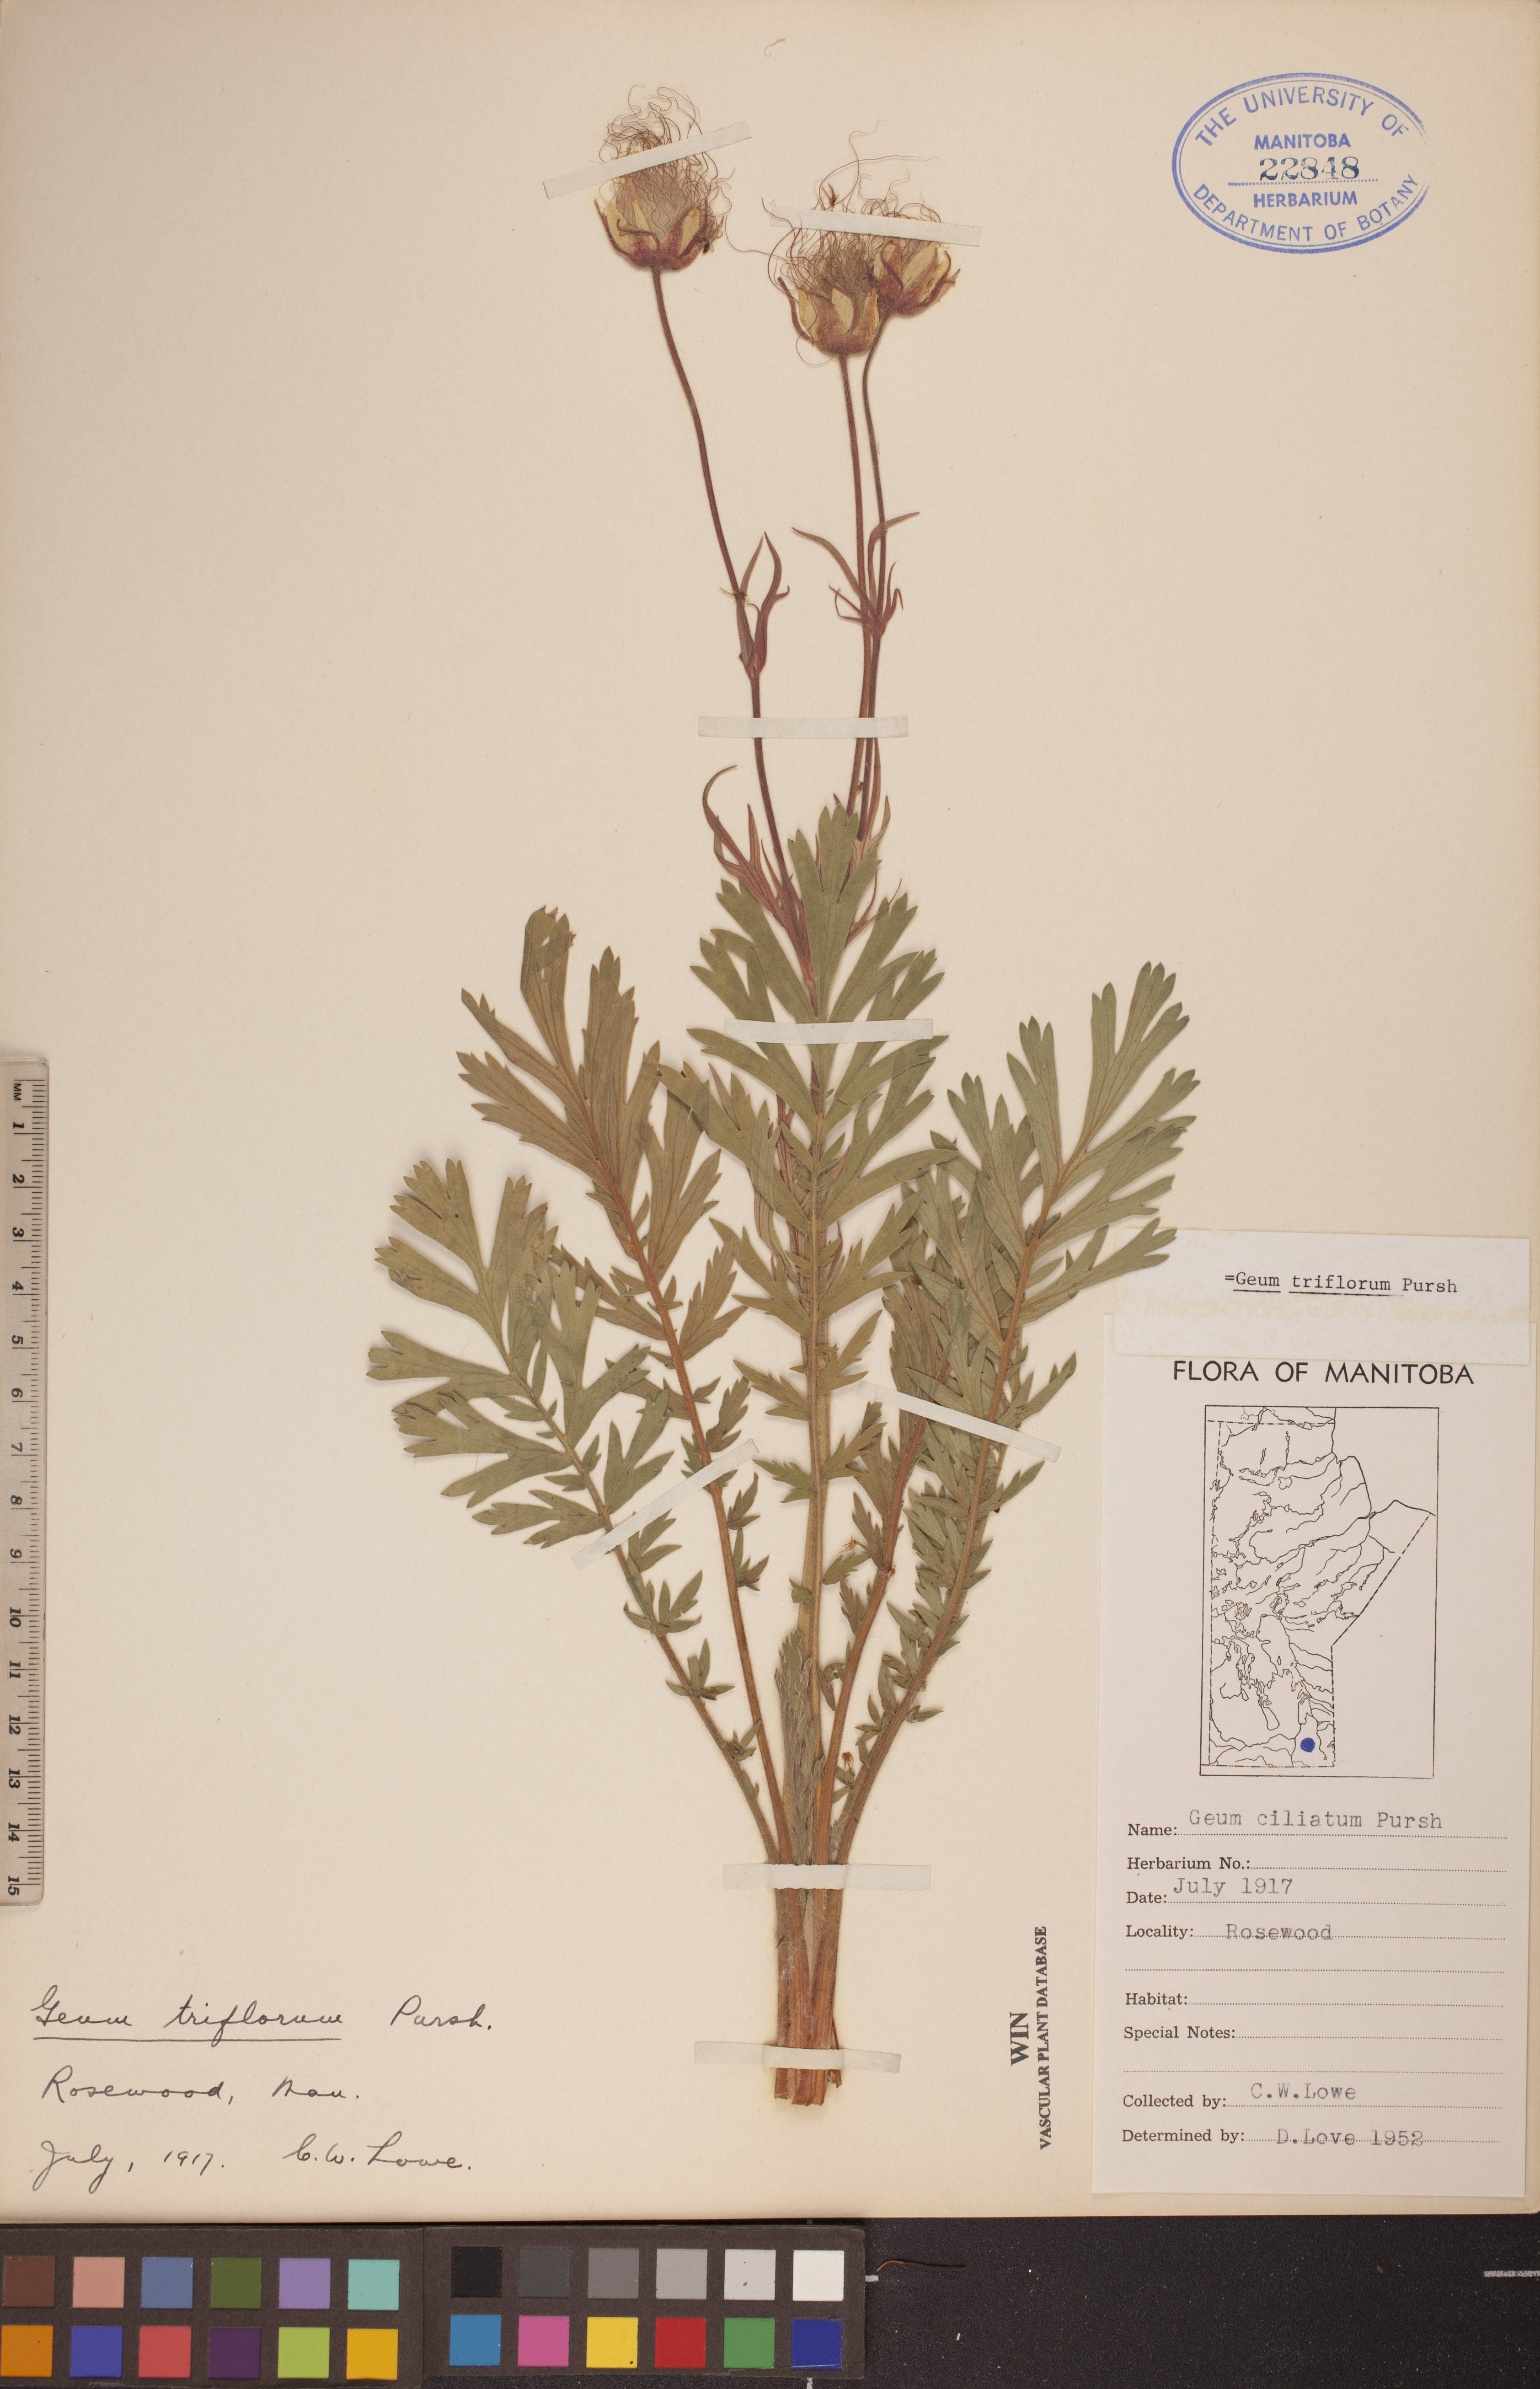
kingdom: Plantae
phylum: Tracheophyta
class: Magnoliopsida
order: Rosales
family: Rosaceae
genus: Geum
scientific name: Geum triflorum
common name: Old man's whiskers
